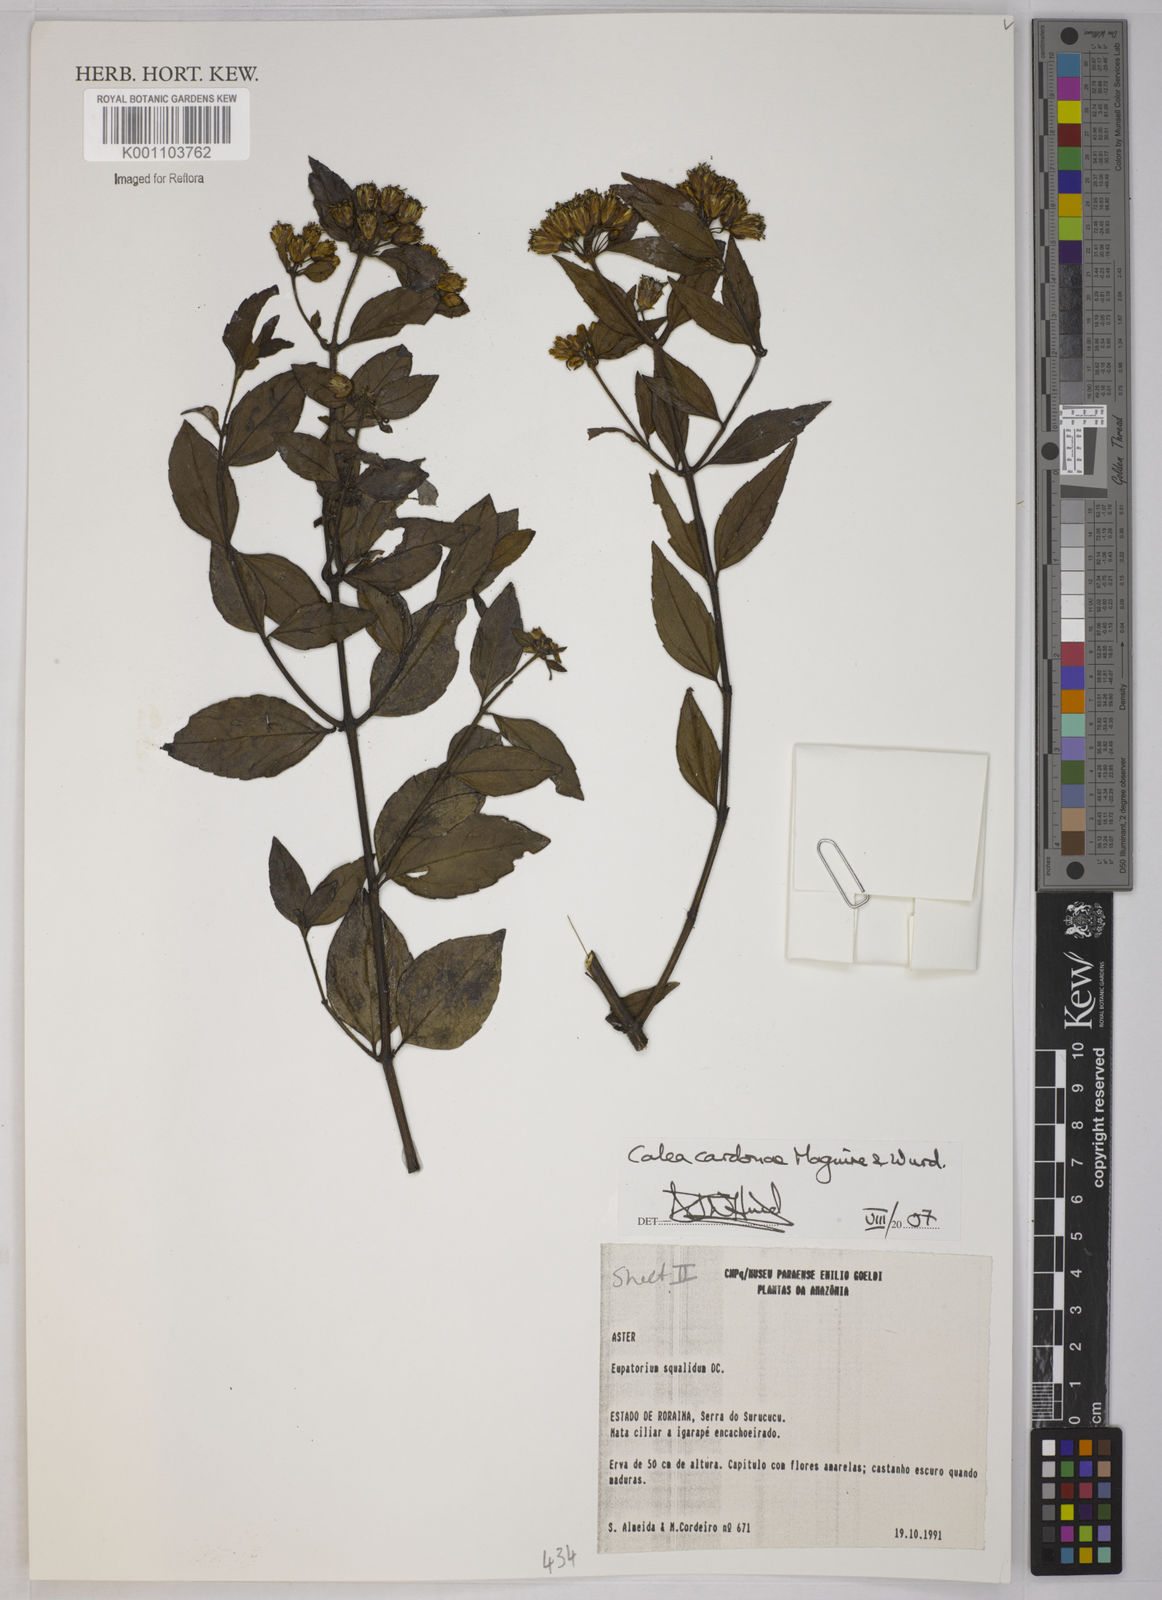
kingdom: Plantae
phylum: Tracheophyta
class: Magnoliopsida
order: Asterales
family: Asteraceae
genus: Calea
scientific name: Calea lucidivenia
